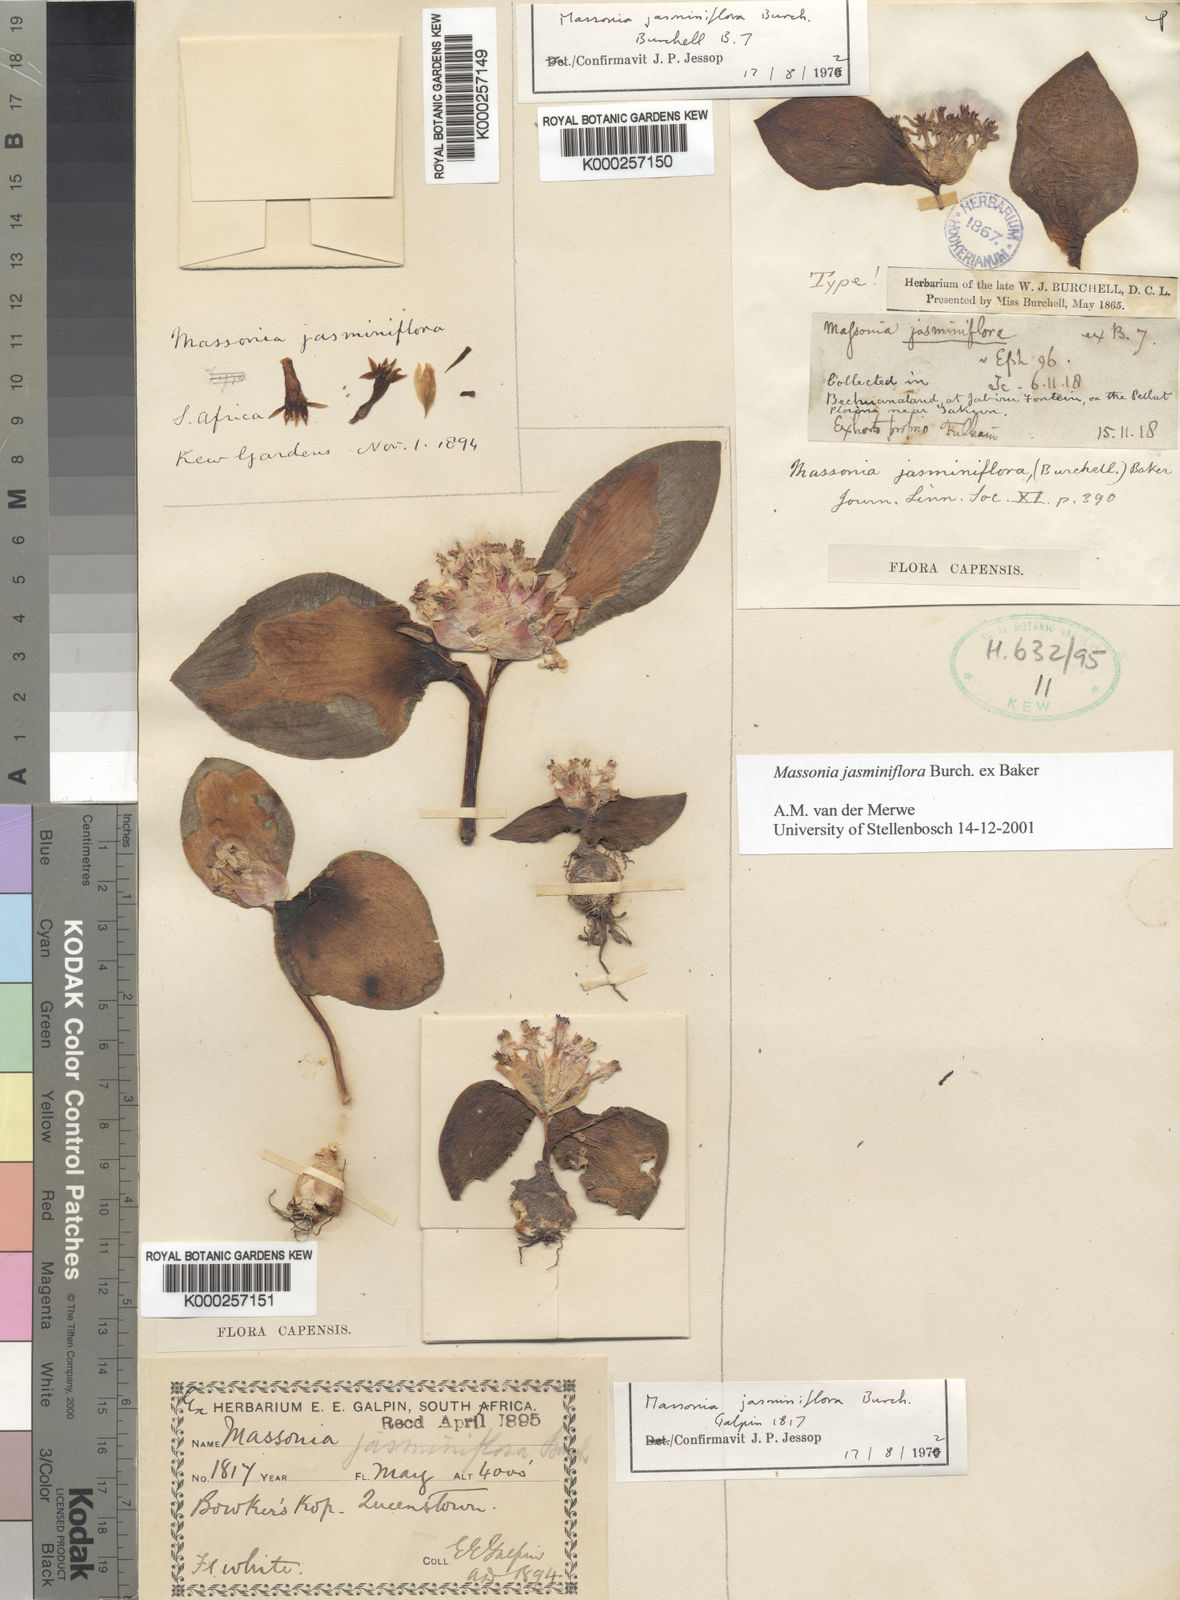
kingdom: Plantae
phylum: Tracheophyta
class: Liliopsida
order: Asparagales
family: Asparagaceae
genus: Massonia
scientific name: Massonia jasminiflora
